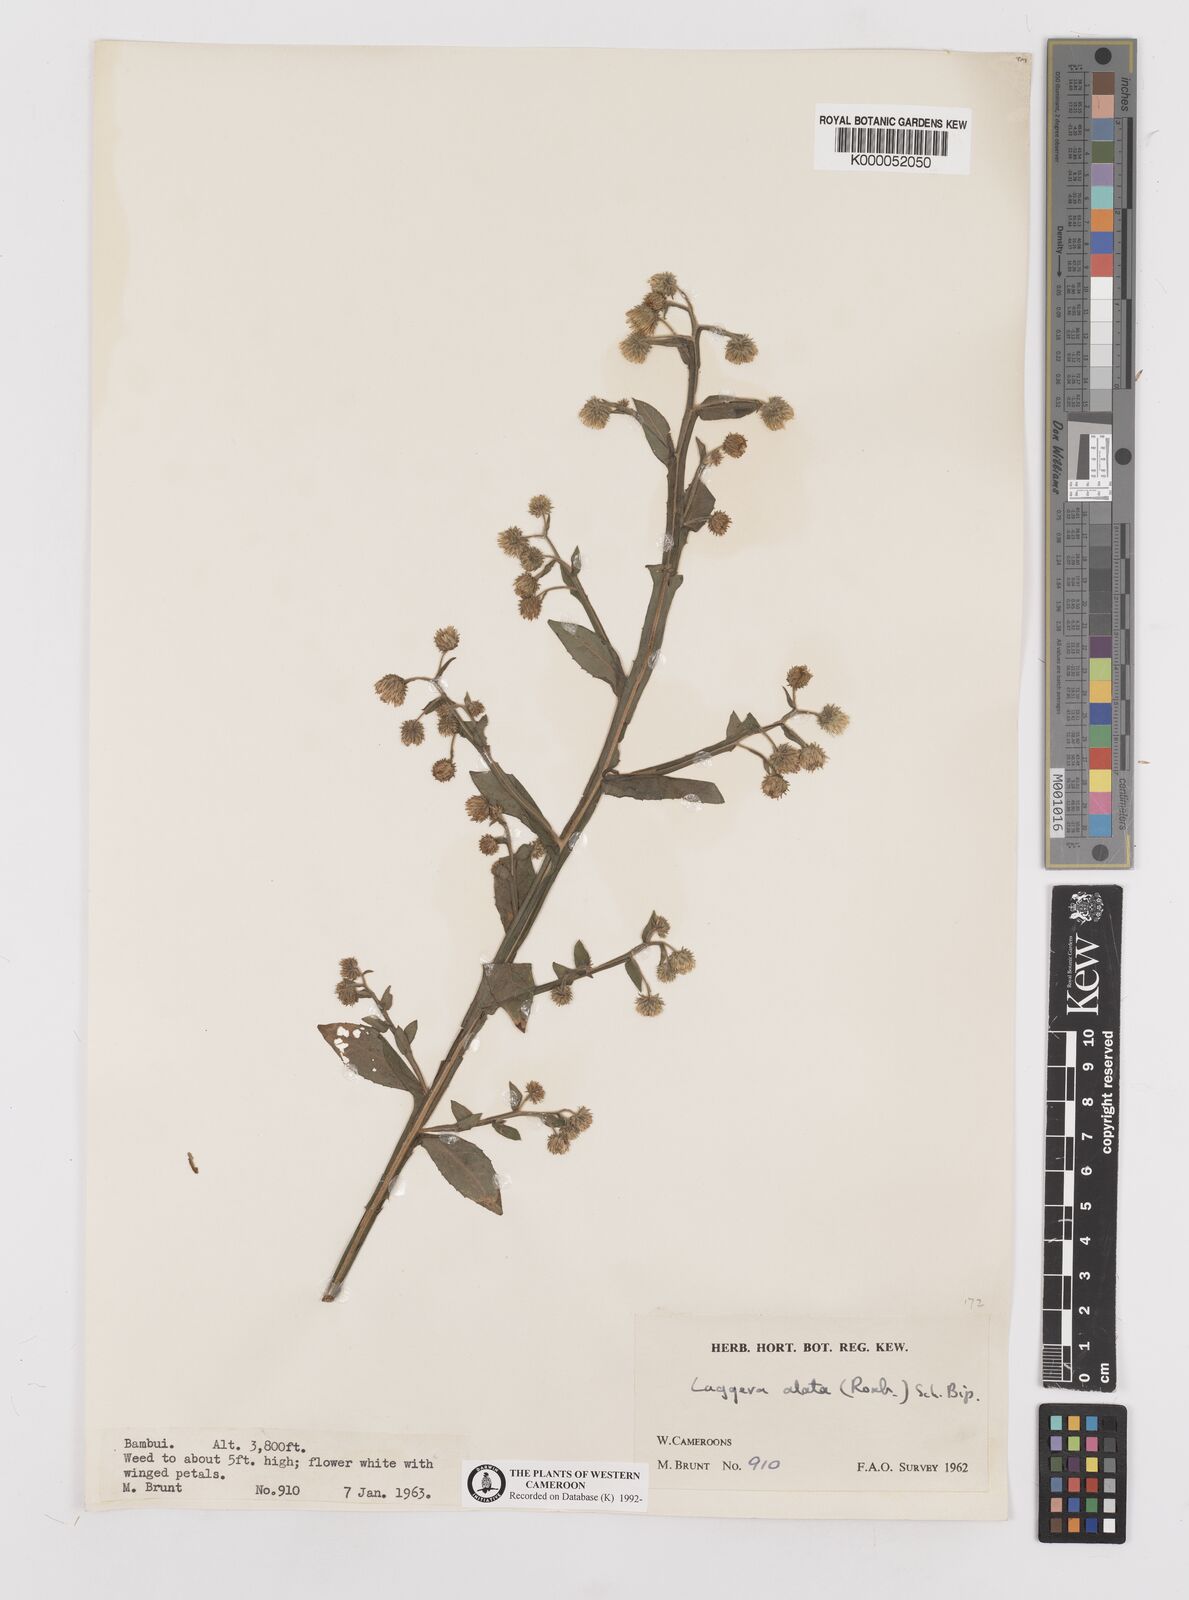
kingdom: Plantae
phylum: Tracheophyta
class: Magnoliopsida
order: Asterales
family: Asteraceae
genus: Laggera
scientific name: Laggera crispata
